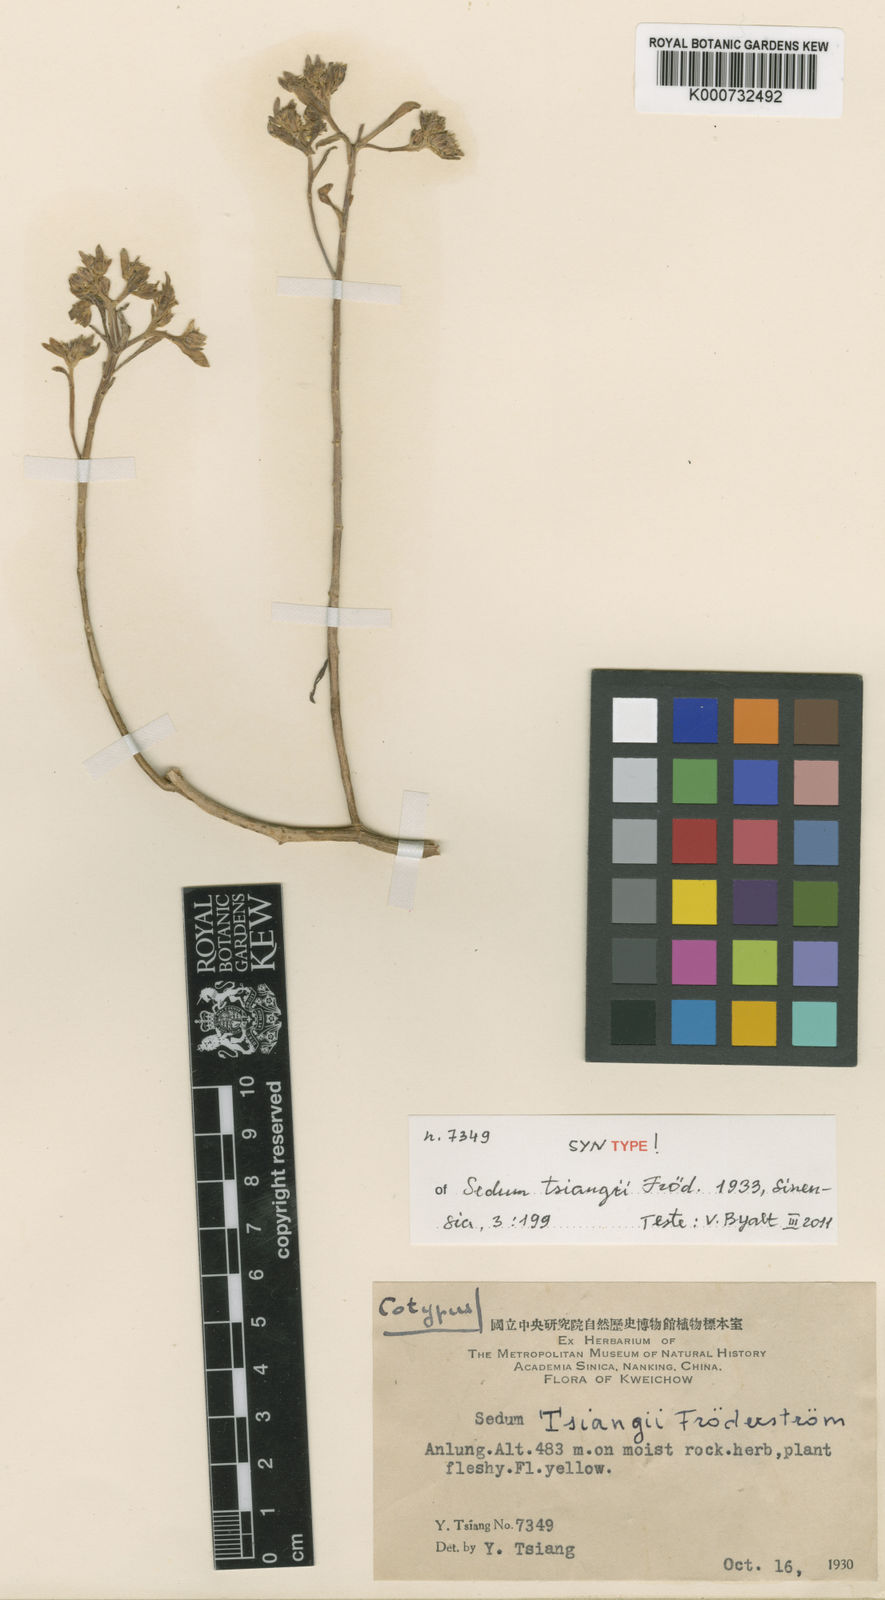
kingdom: Plantae
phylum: Tracheophyta
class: Magnoliopsida
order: Saxifragales
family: Crassulaceae
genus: Sedum
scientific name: Sedum
